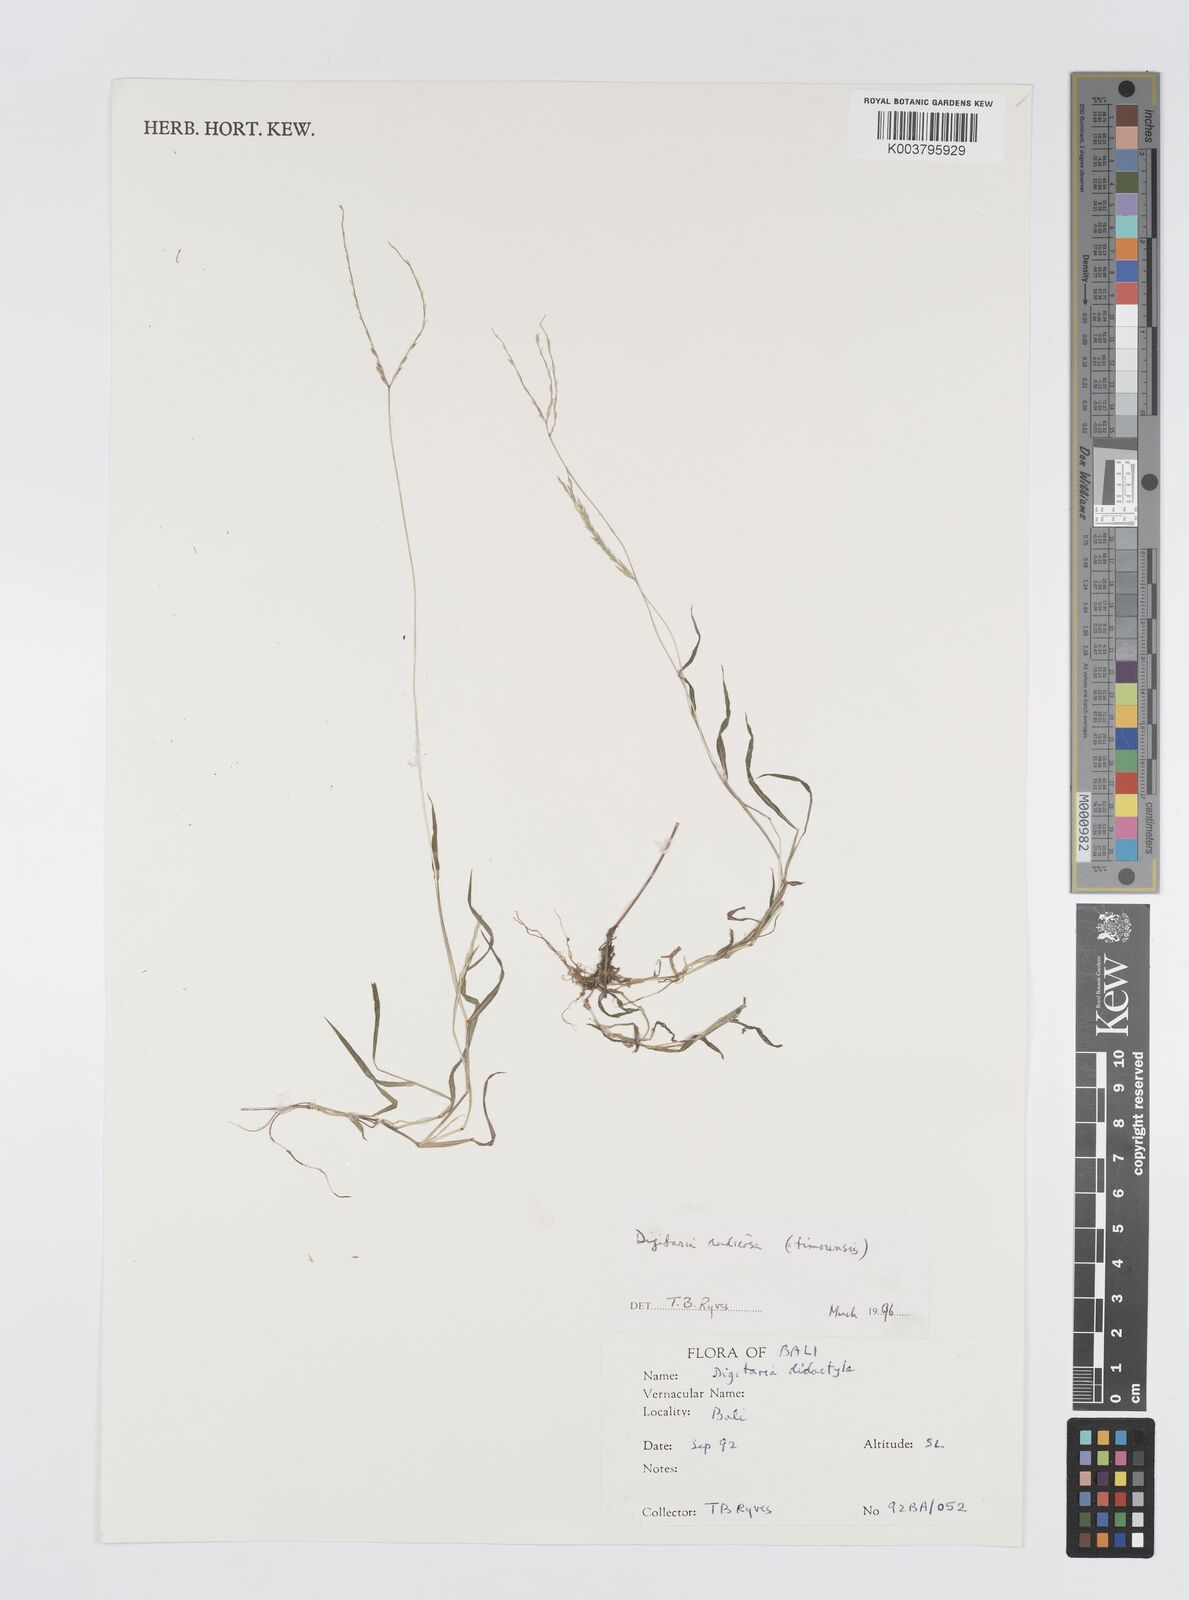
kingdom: Plantae
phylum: Tracheophyta
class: Liliopsida
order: Poales
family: Poaceae
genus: Digitaria
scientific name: Digitaria radicosa
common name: Trailing crabgrass
